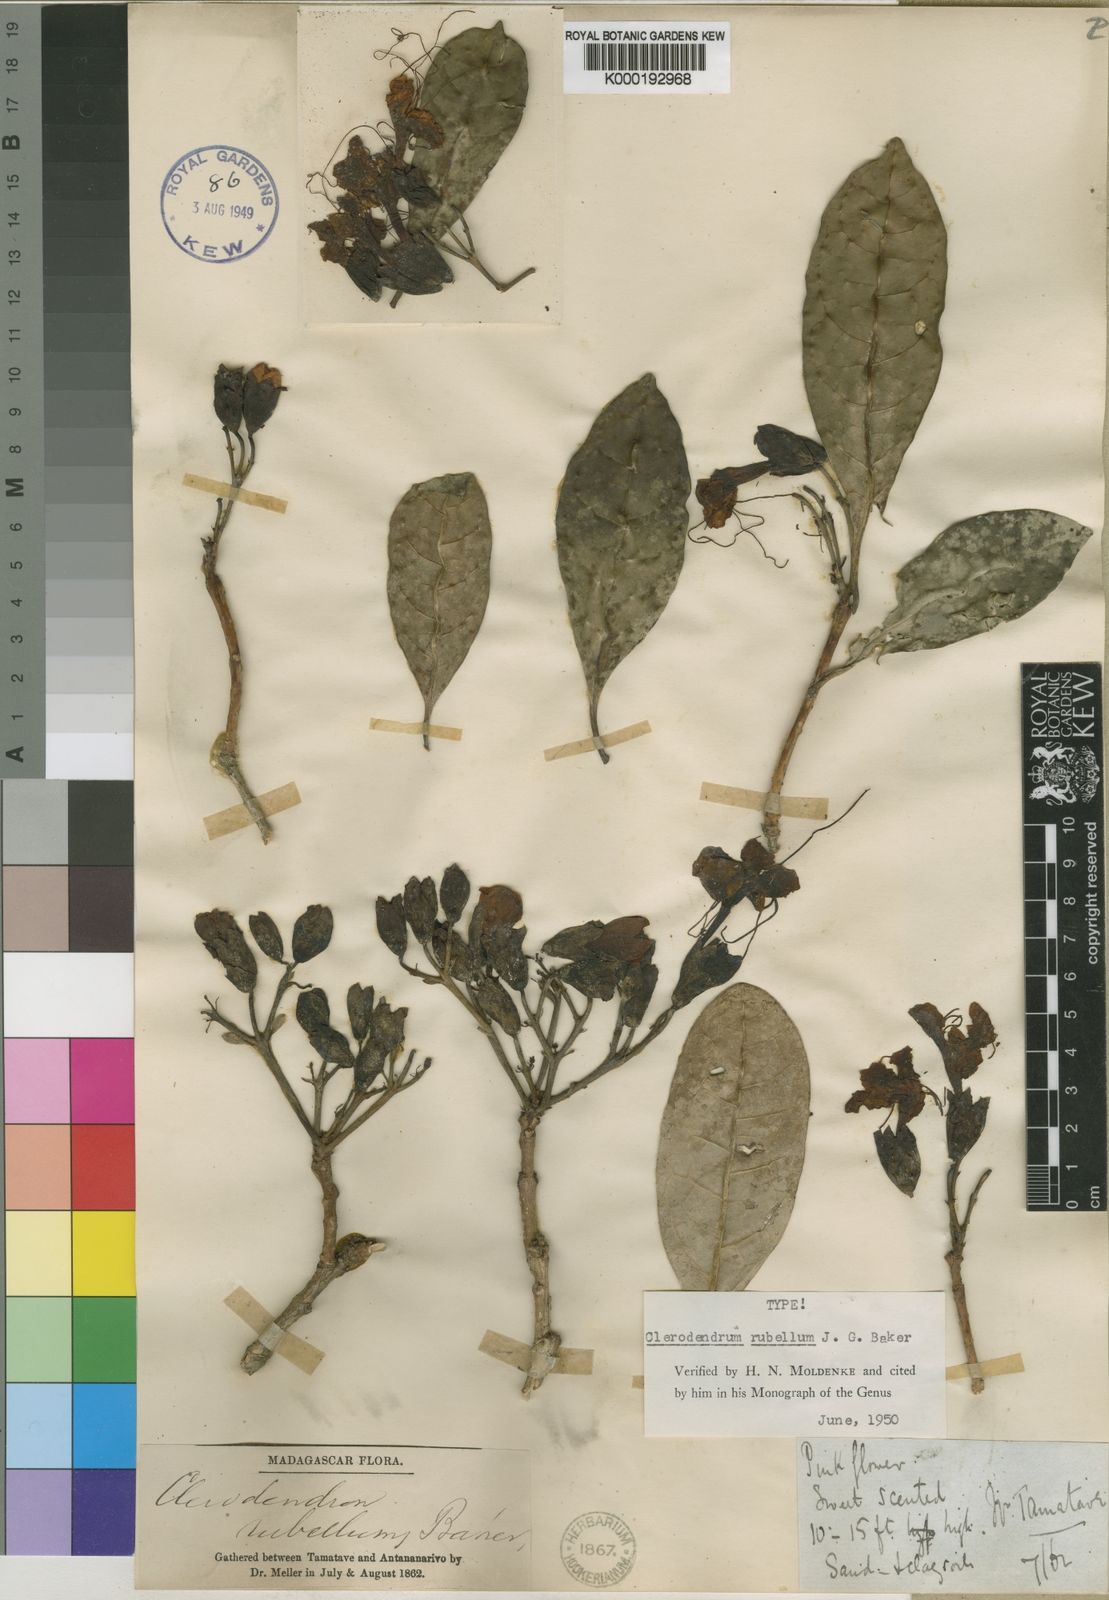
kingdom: Plantae
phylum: Tracheophyta
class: Magnoliopsida
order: Lamiales
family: Lamiaceae
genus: Clerodendrum
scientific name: Clerodendrum rubellum
